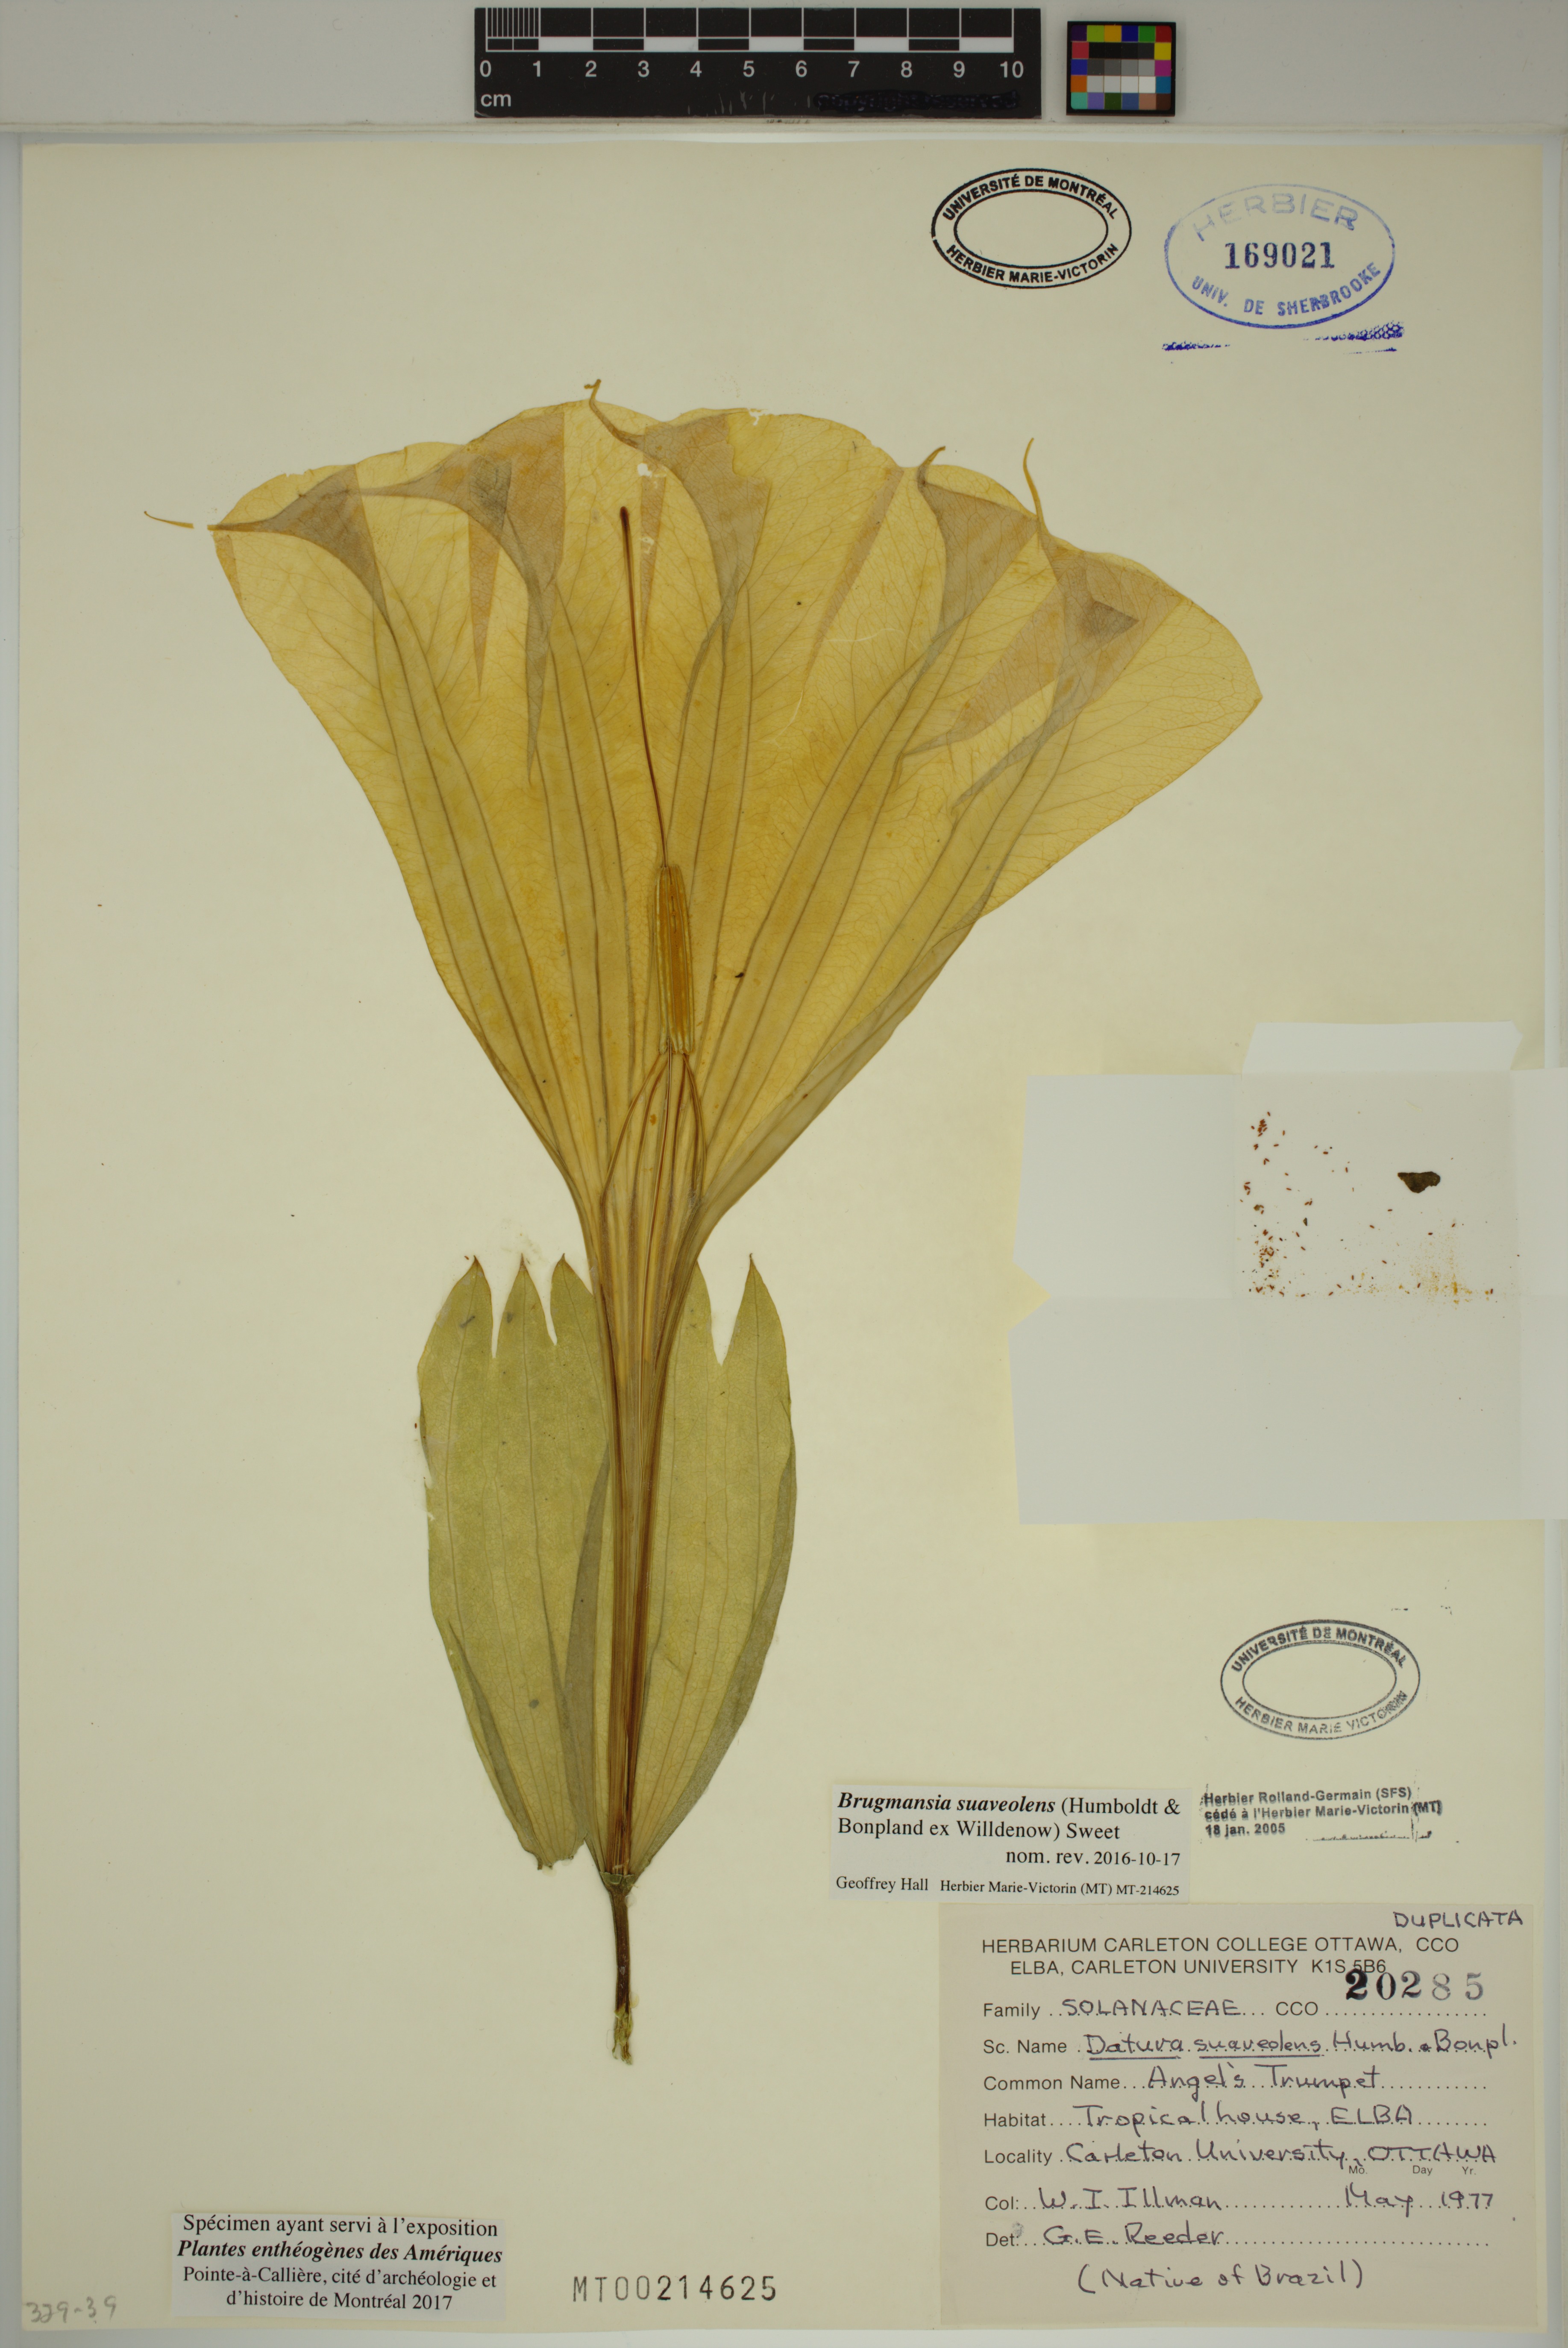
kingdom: Plantae
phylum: Tracheophyta
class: Magnoliopsida
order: Solanales
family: Solanaceae
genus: Brugmansia
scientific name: Brugmansia suaveolens
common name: Angel's tears
